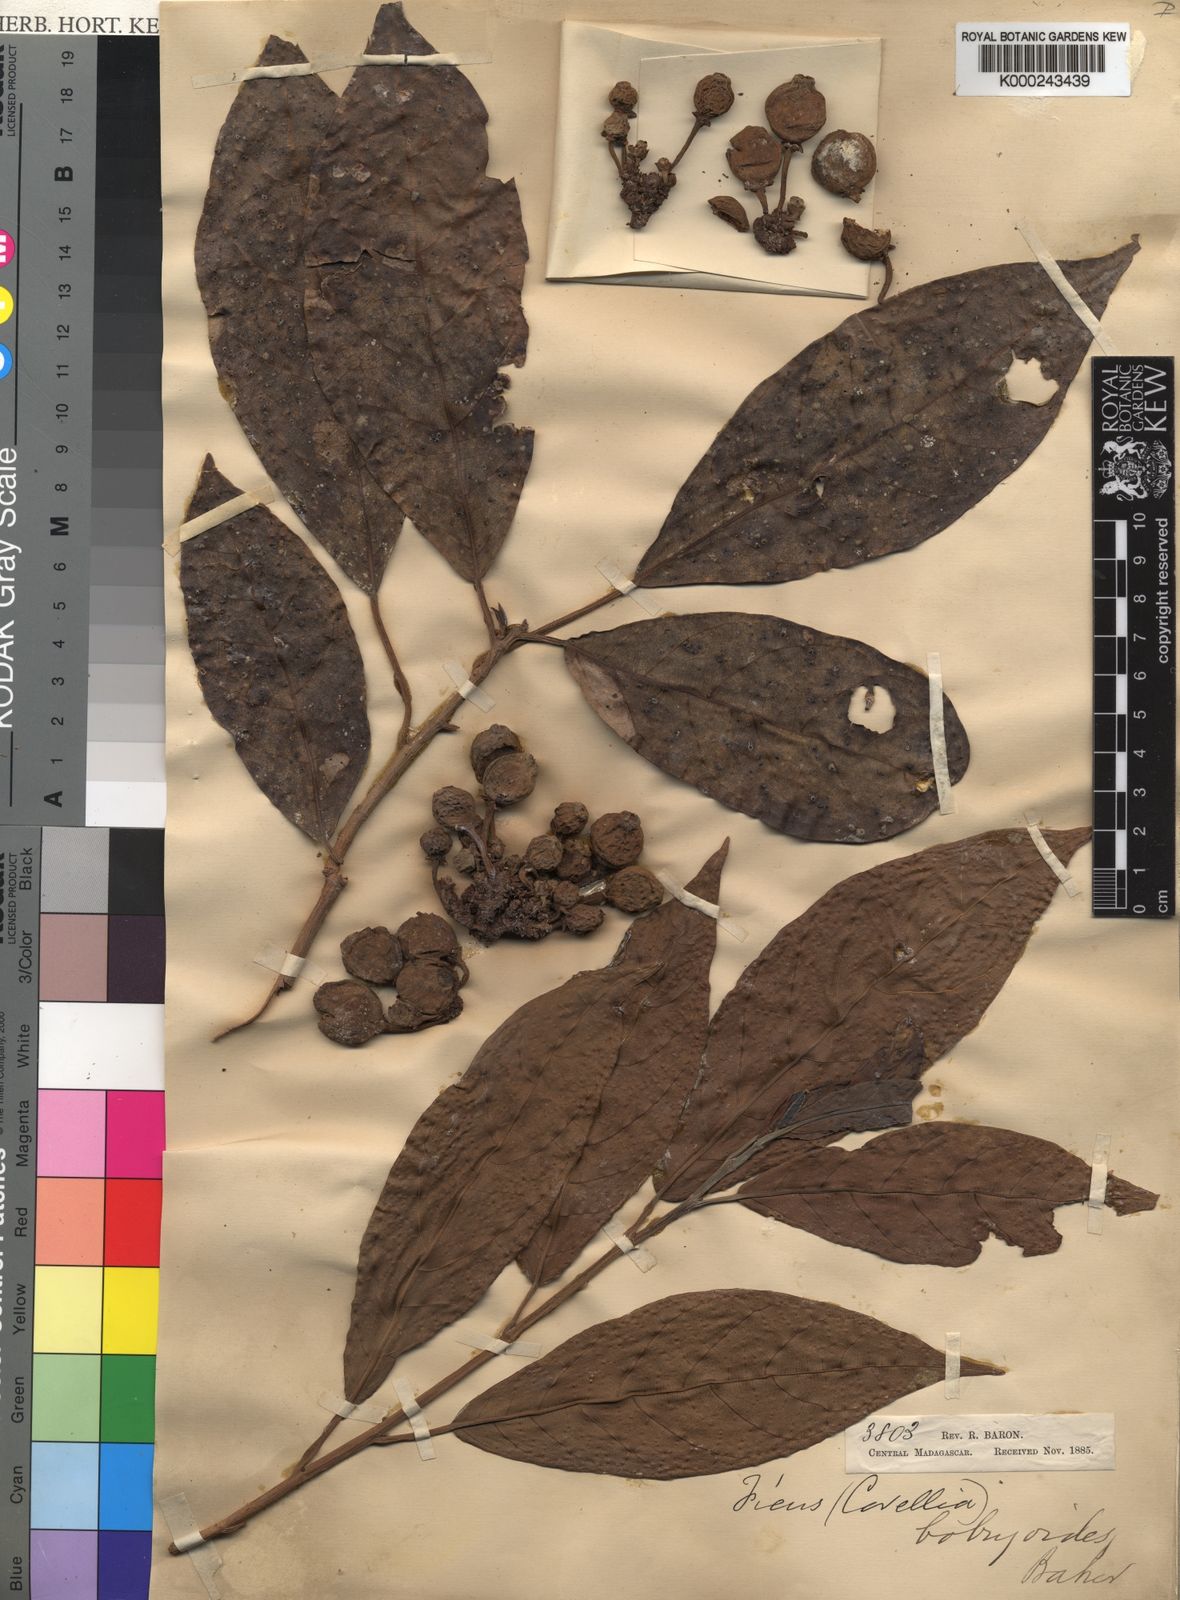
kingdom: Plantae
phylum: Tracheophyta
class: Magnoliopsida
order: Rosales
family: Moraceae
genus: Ficus
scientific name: Ficus botryoides
